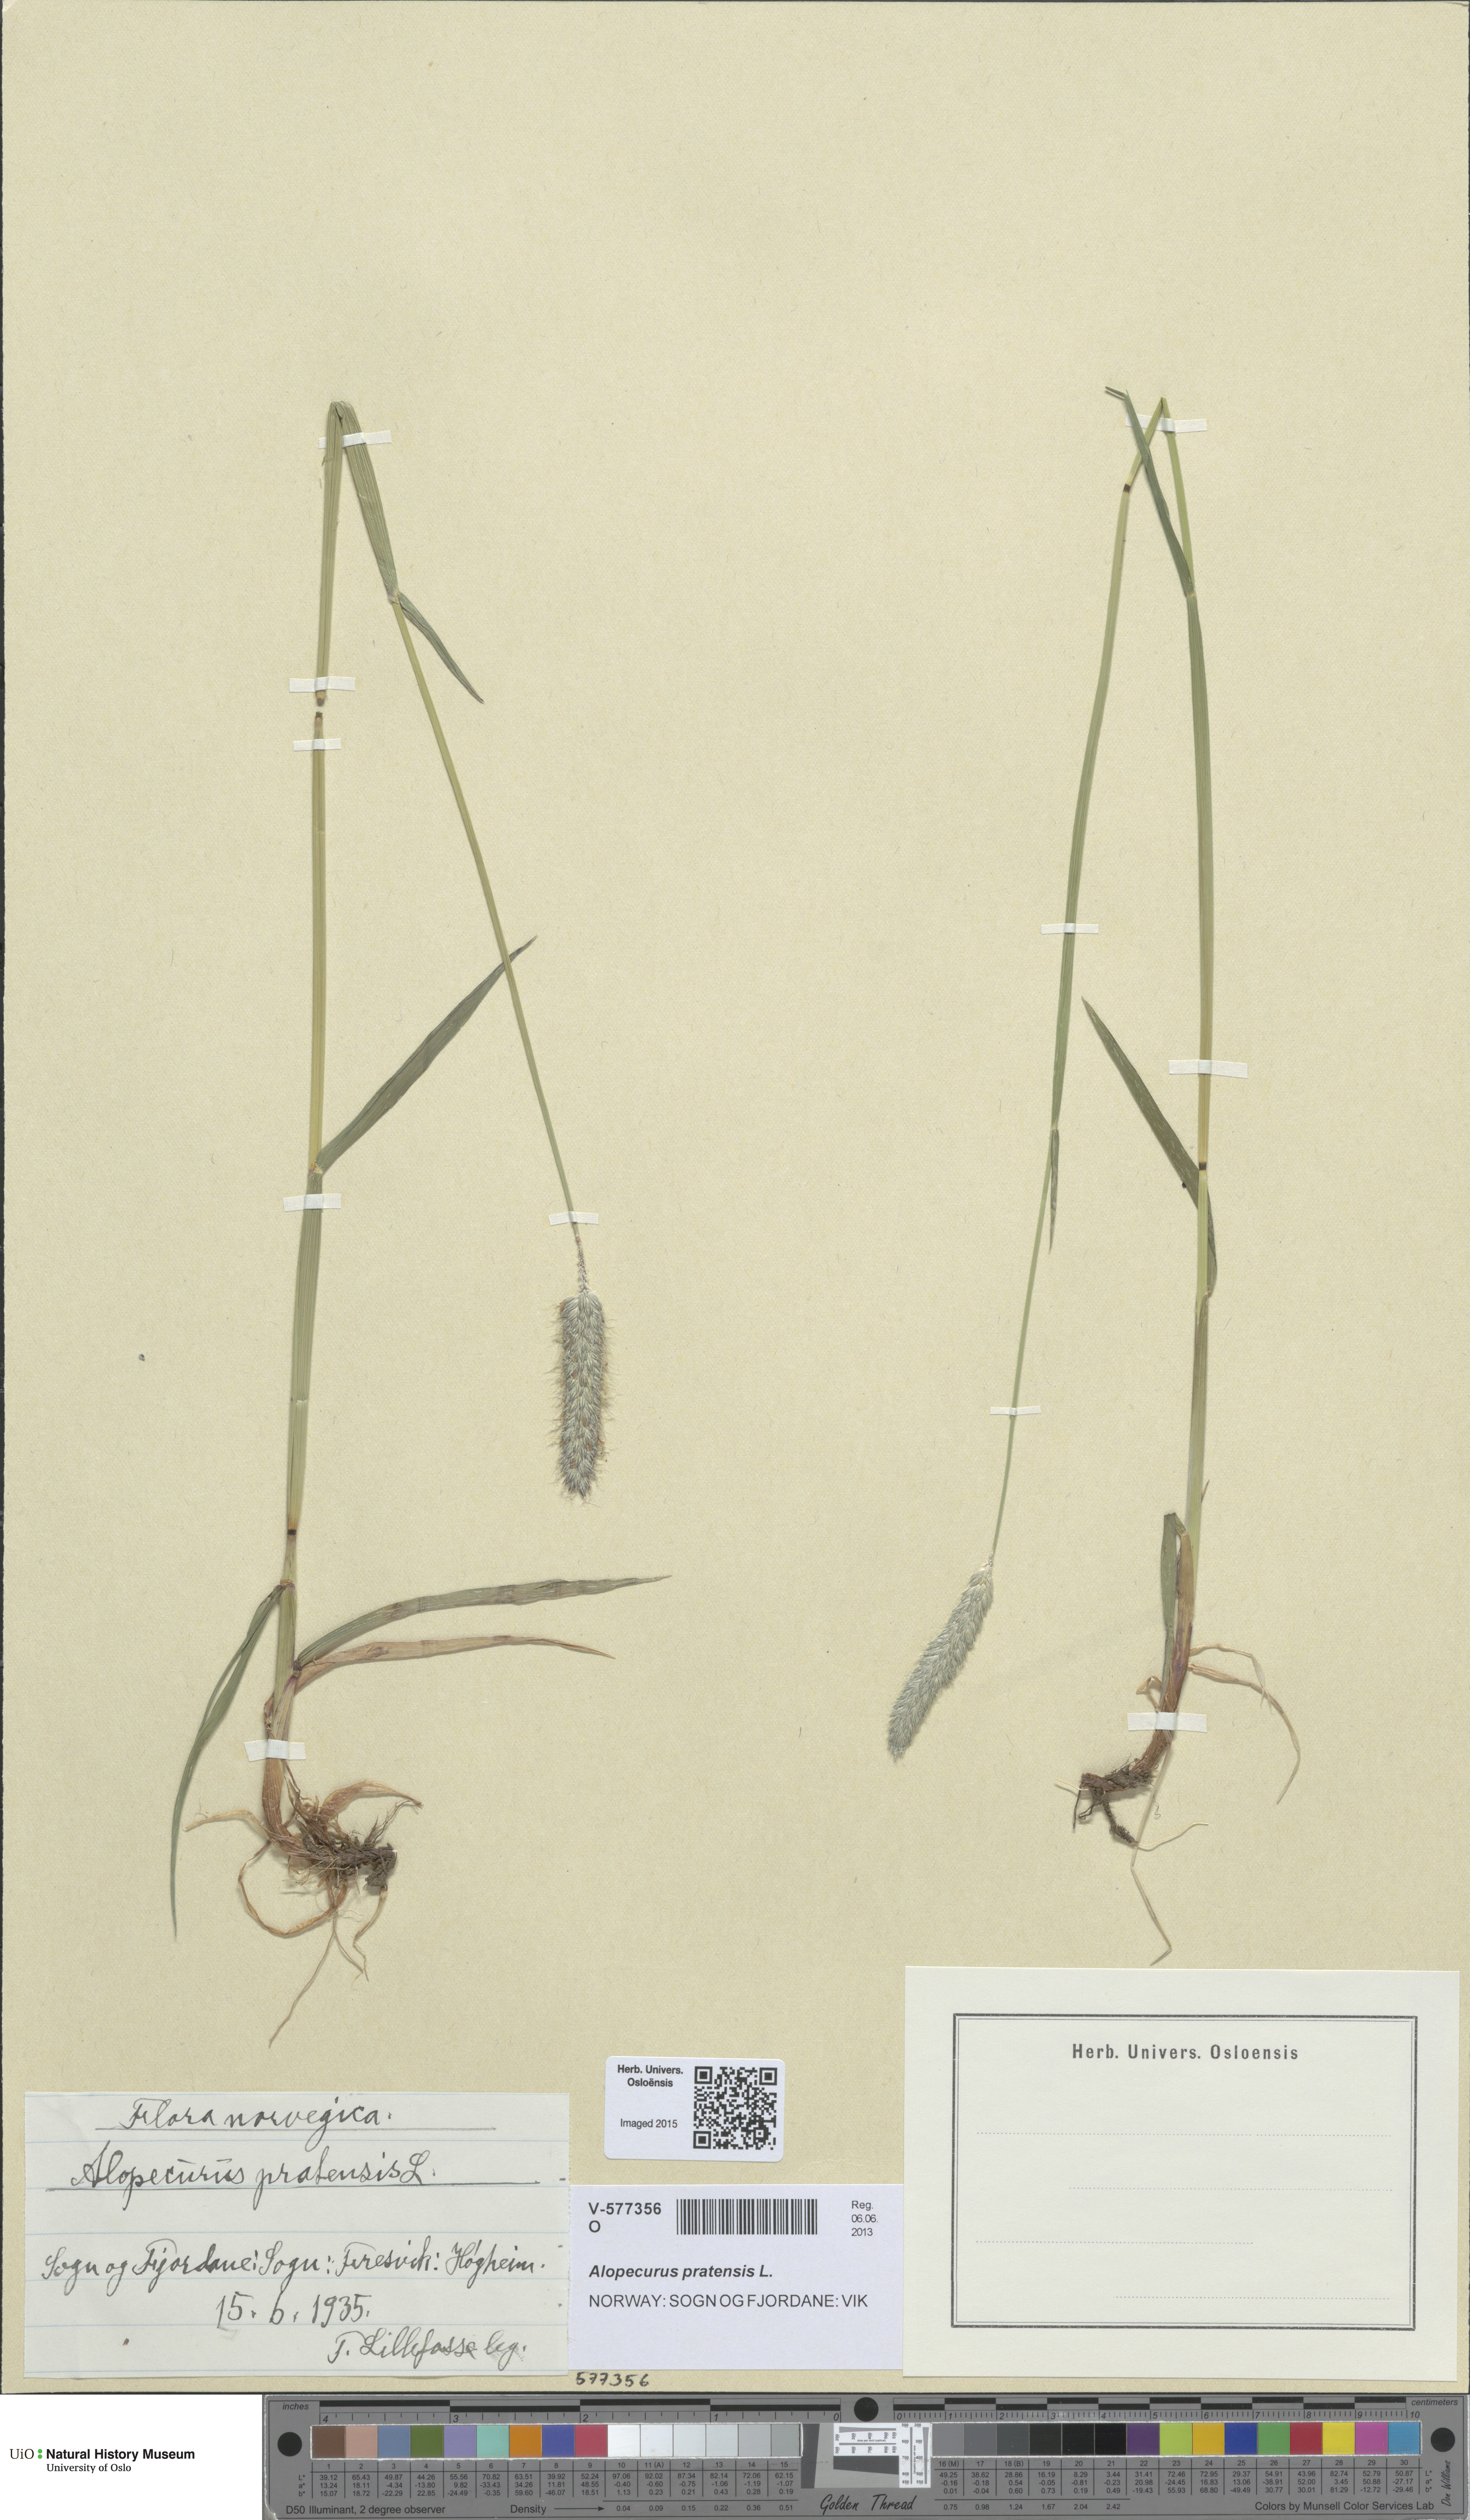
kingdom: Plantae
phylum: Tracheophyta
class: Liliopsida
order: Poales
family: Poaceae
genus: Alopecurus
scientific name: Alopecurus pratensis
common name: Meadow foxtail
